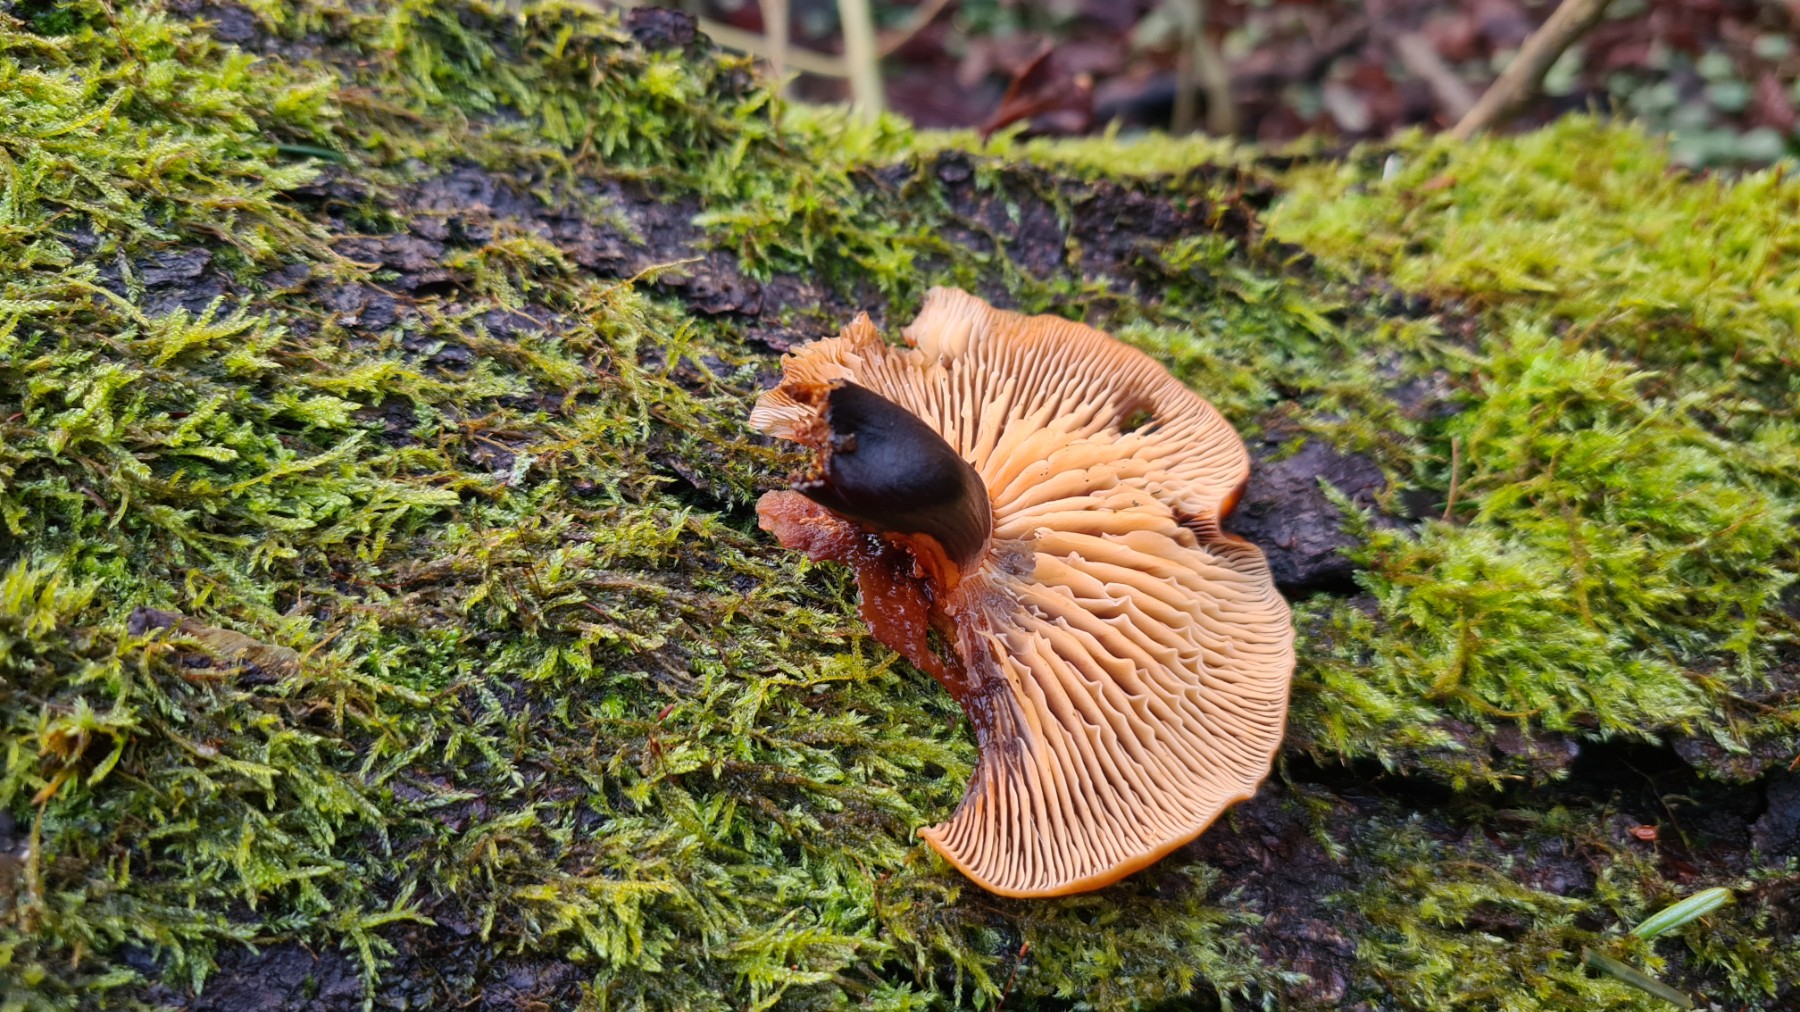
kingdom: Fungi
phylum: Basidiomycota
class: Agaricomycetes
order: Agaricales
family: Physalacriaceae
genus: Flammulina
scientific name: Flammulina velutipes
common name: gul fløjlsfod
